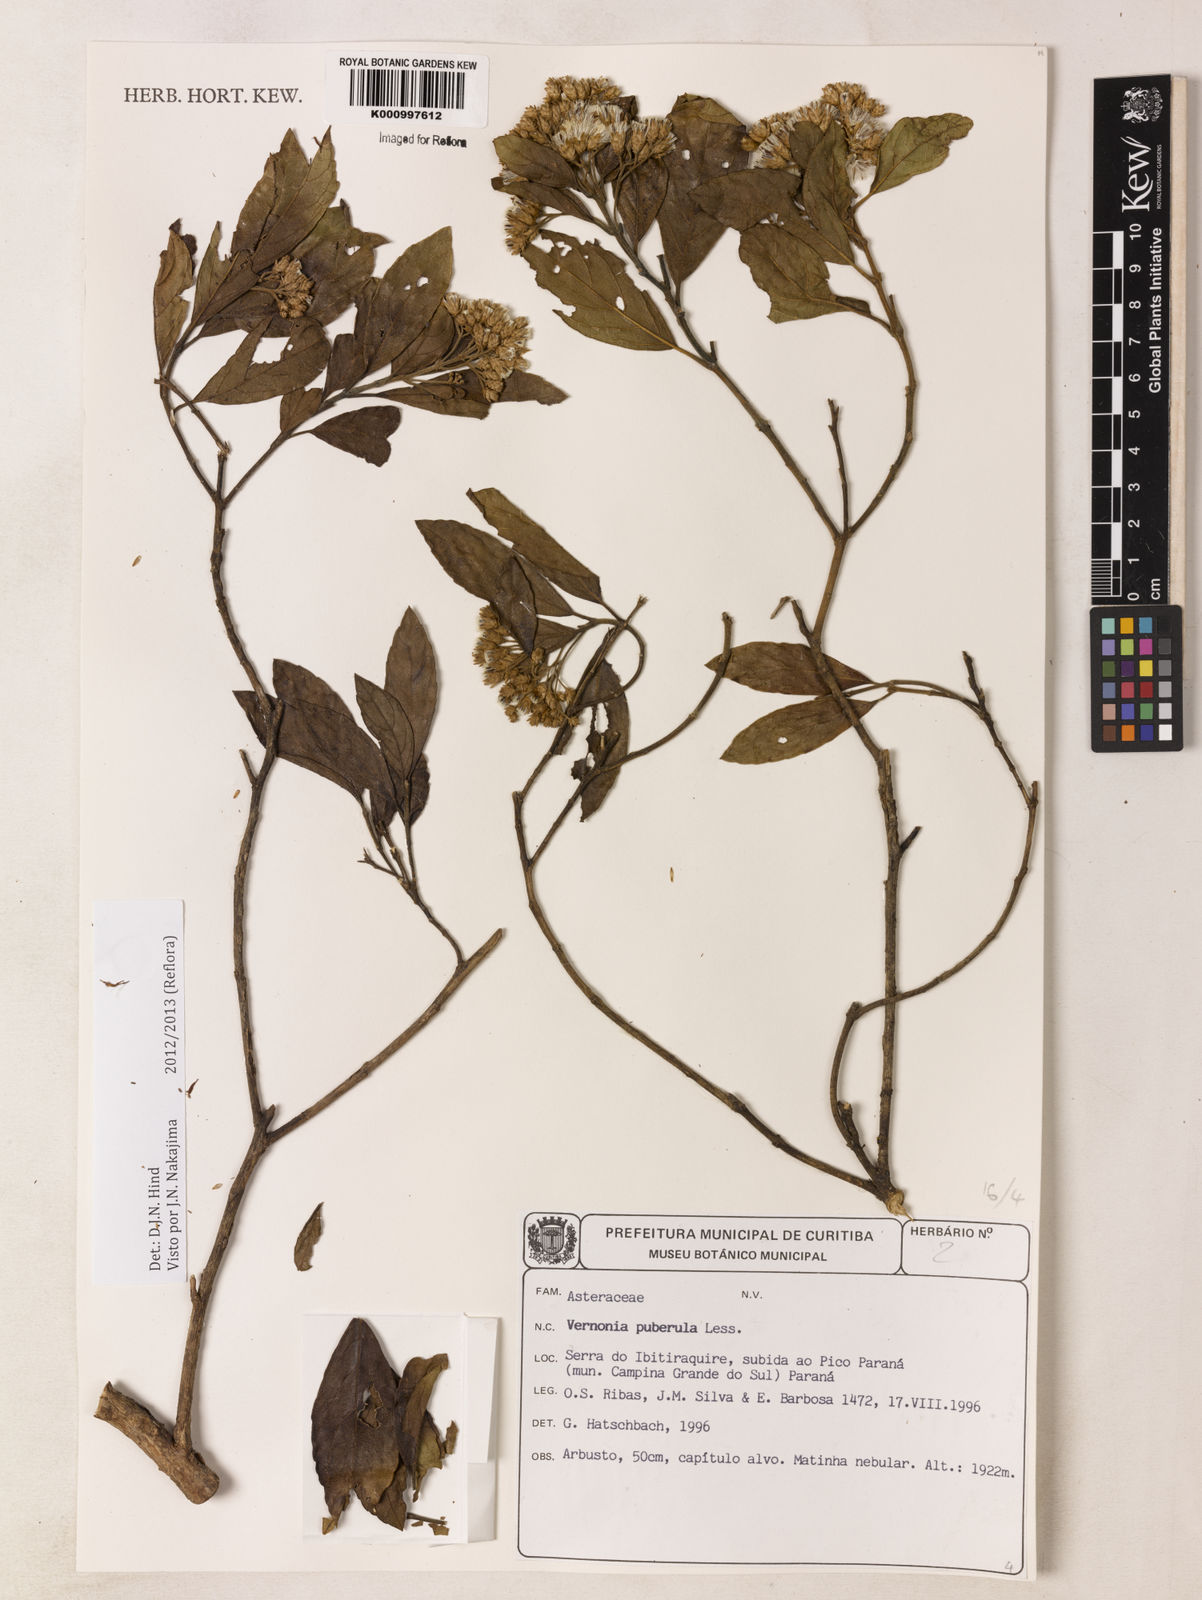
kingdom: Plantae
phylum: Tracheophyta
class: Magnoliopsida
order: Asterales
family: Asteraceae
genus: Vernonanthura
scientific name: Vernonanthura puberula
